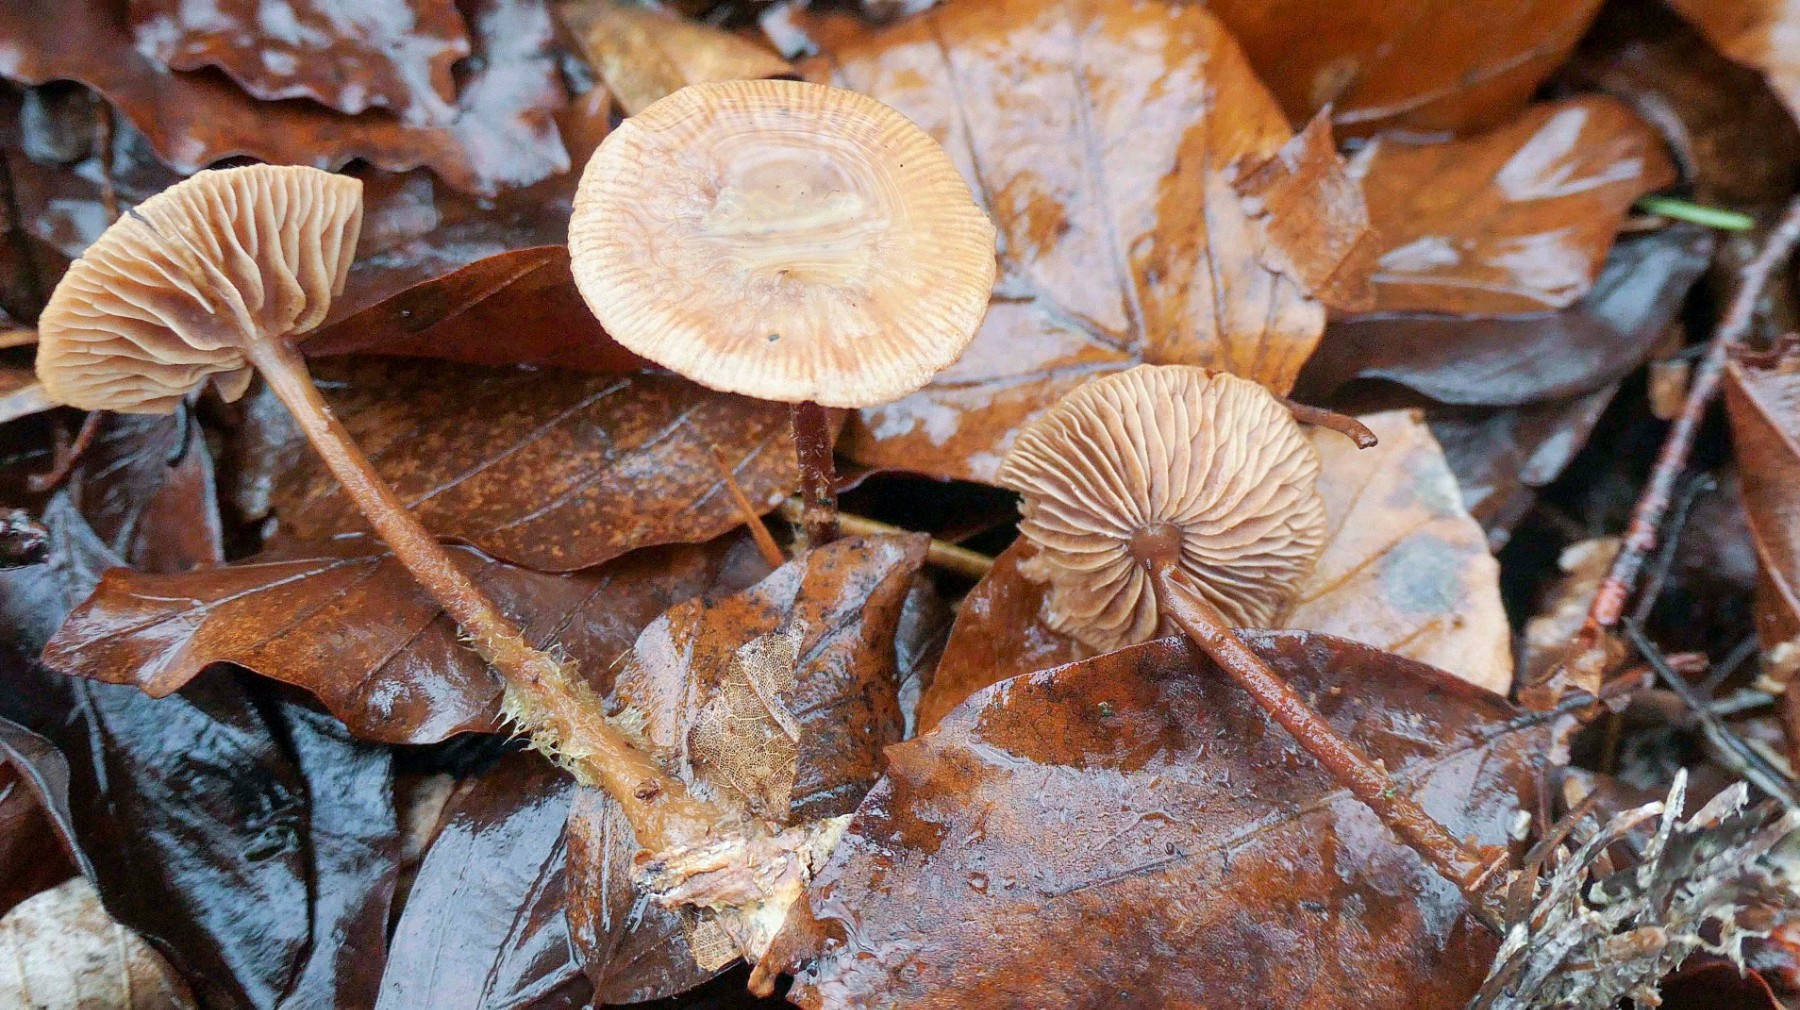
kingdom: Fungi
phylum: Basidiomycota
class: Agaricomycetes
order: Agaricales
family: Omphalotaceae
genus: Gymnopus
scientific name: Gymnopus fagiphilus
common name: bøgeløv-fladhat
